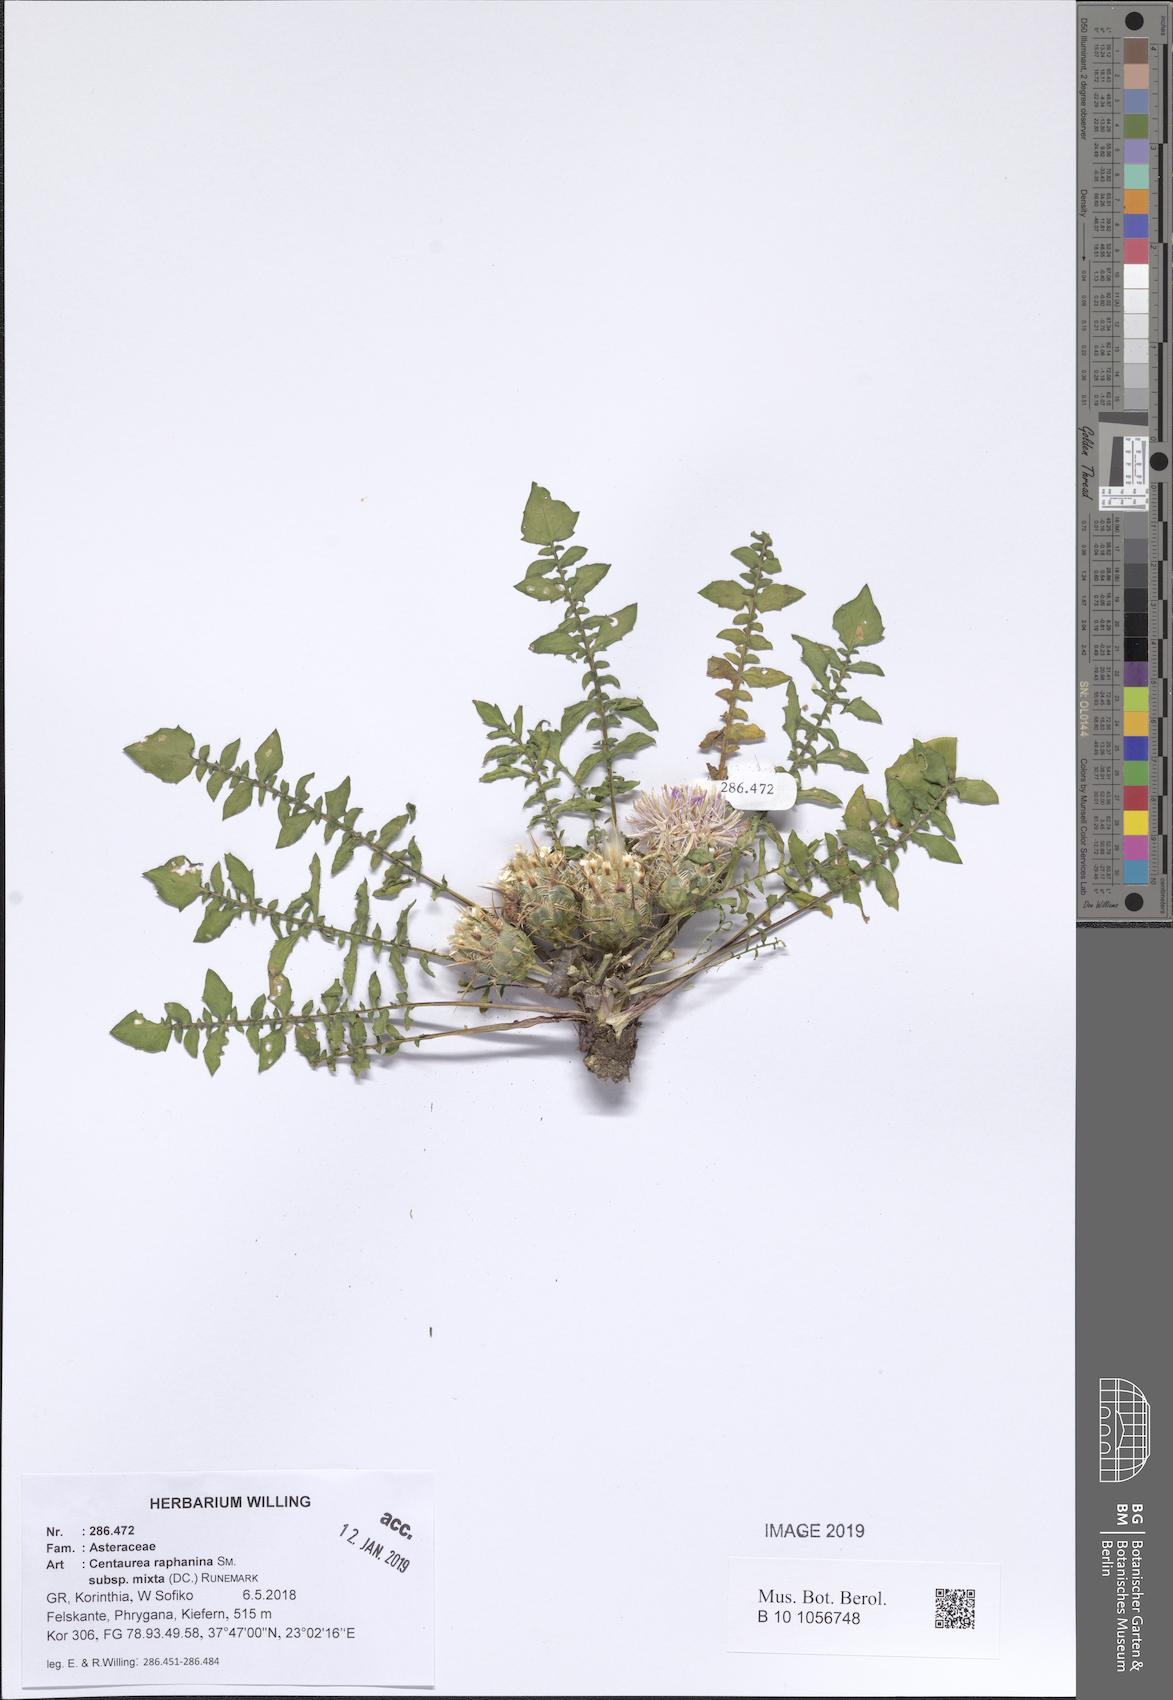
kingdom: Plantae
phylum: Tracheophyta
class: Magnoliopsida
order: Asterales
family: Asteraceae
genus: Centaurea
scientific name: Centaurea raphanina
